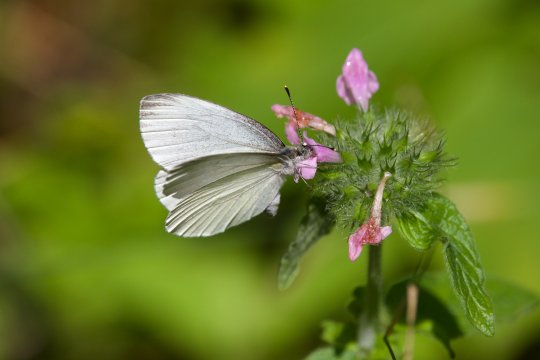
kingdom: Animalia
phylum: Arthropoda
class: Insecta
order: Lepidoptera
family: Pieridae
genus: Pieris
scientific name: Pieris oleracea
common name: Mustard White
